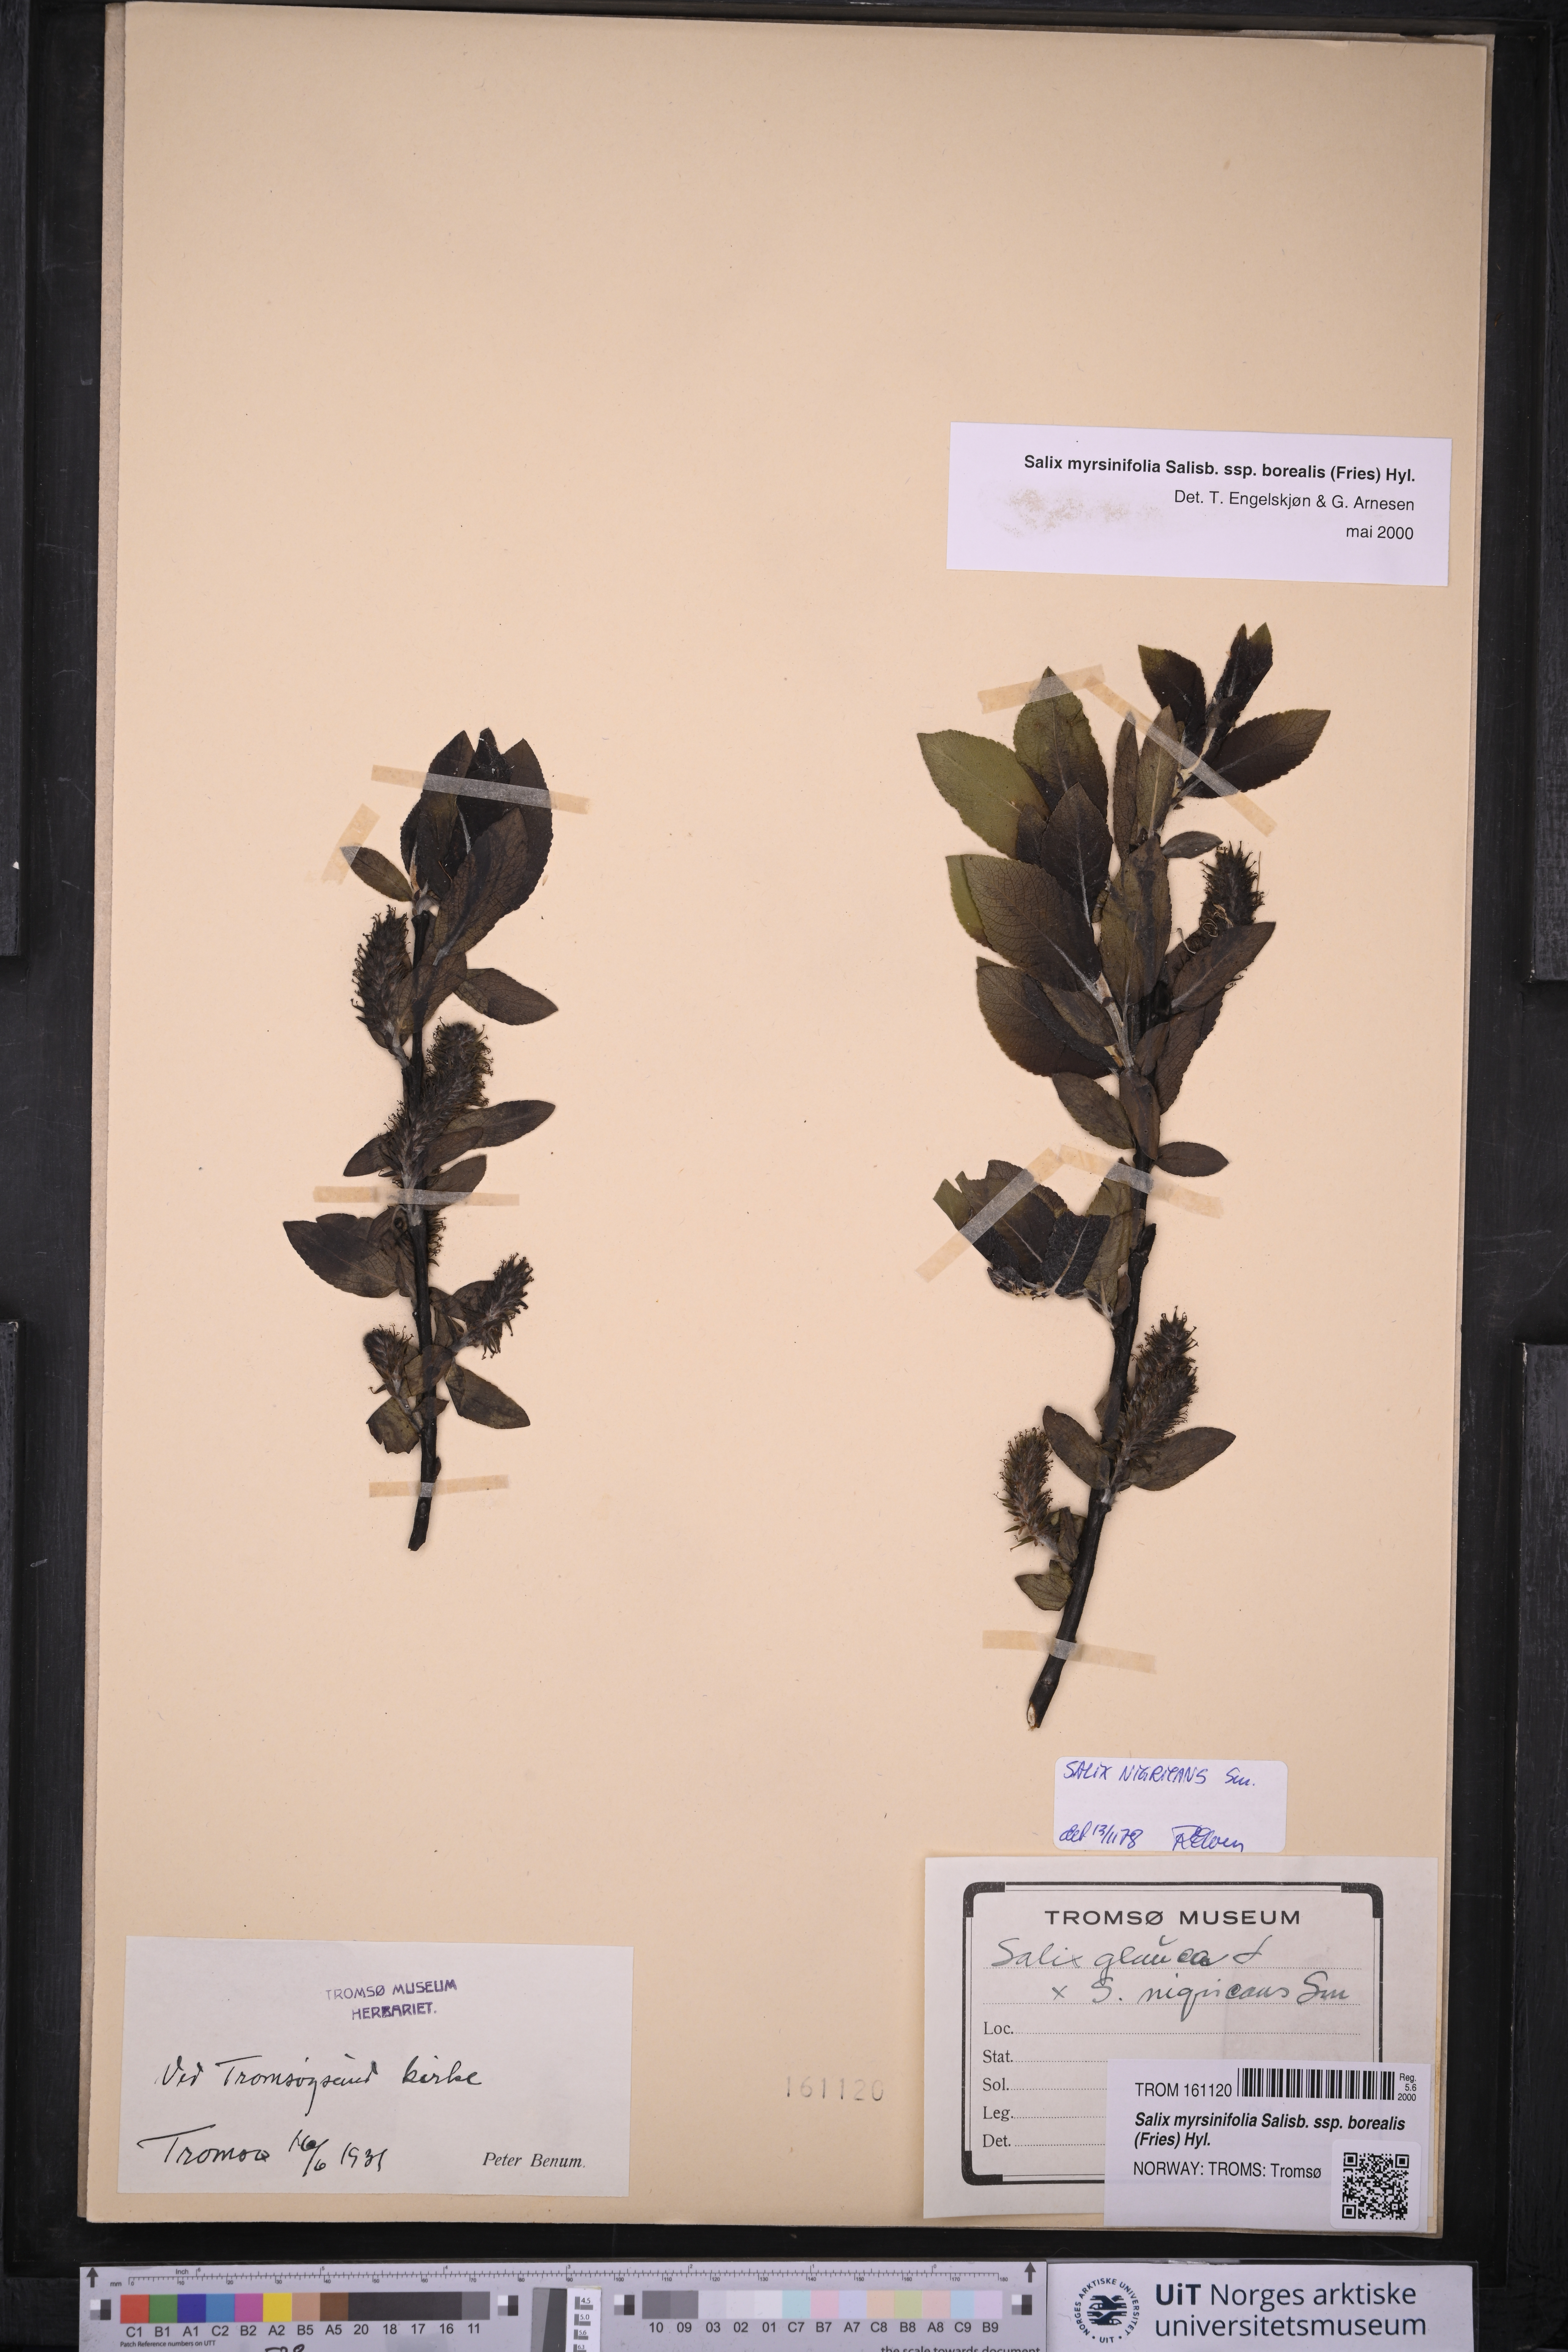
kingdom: Plantae
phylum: Tracheophyta
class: Magnoliopsida
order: Malpighiales
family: Salicaceae
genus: Salix
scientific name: Salix myrsinifolia
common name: Dark-leaved willow
